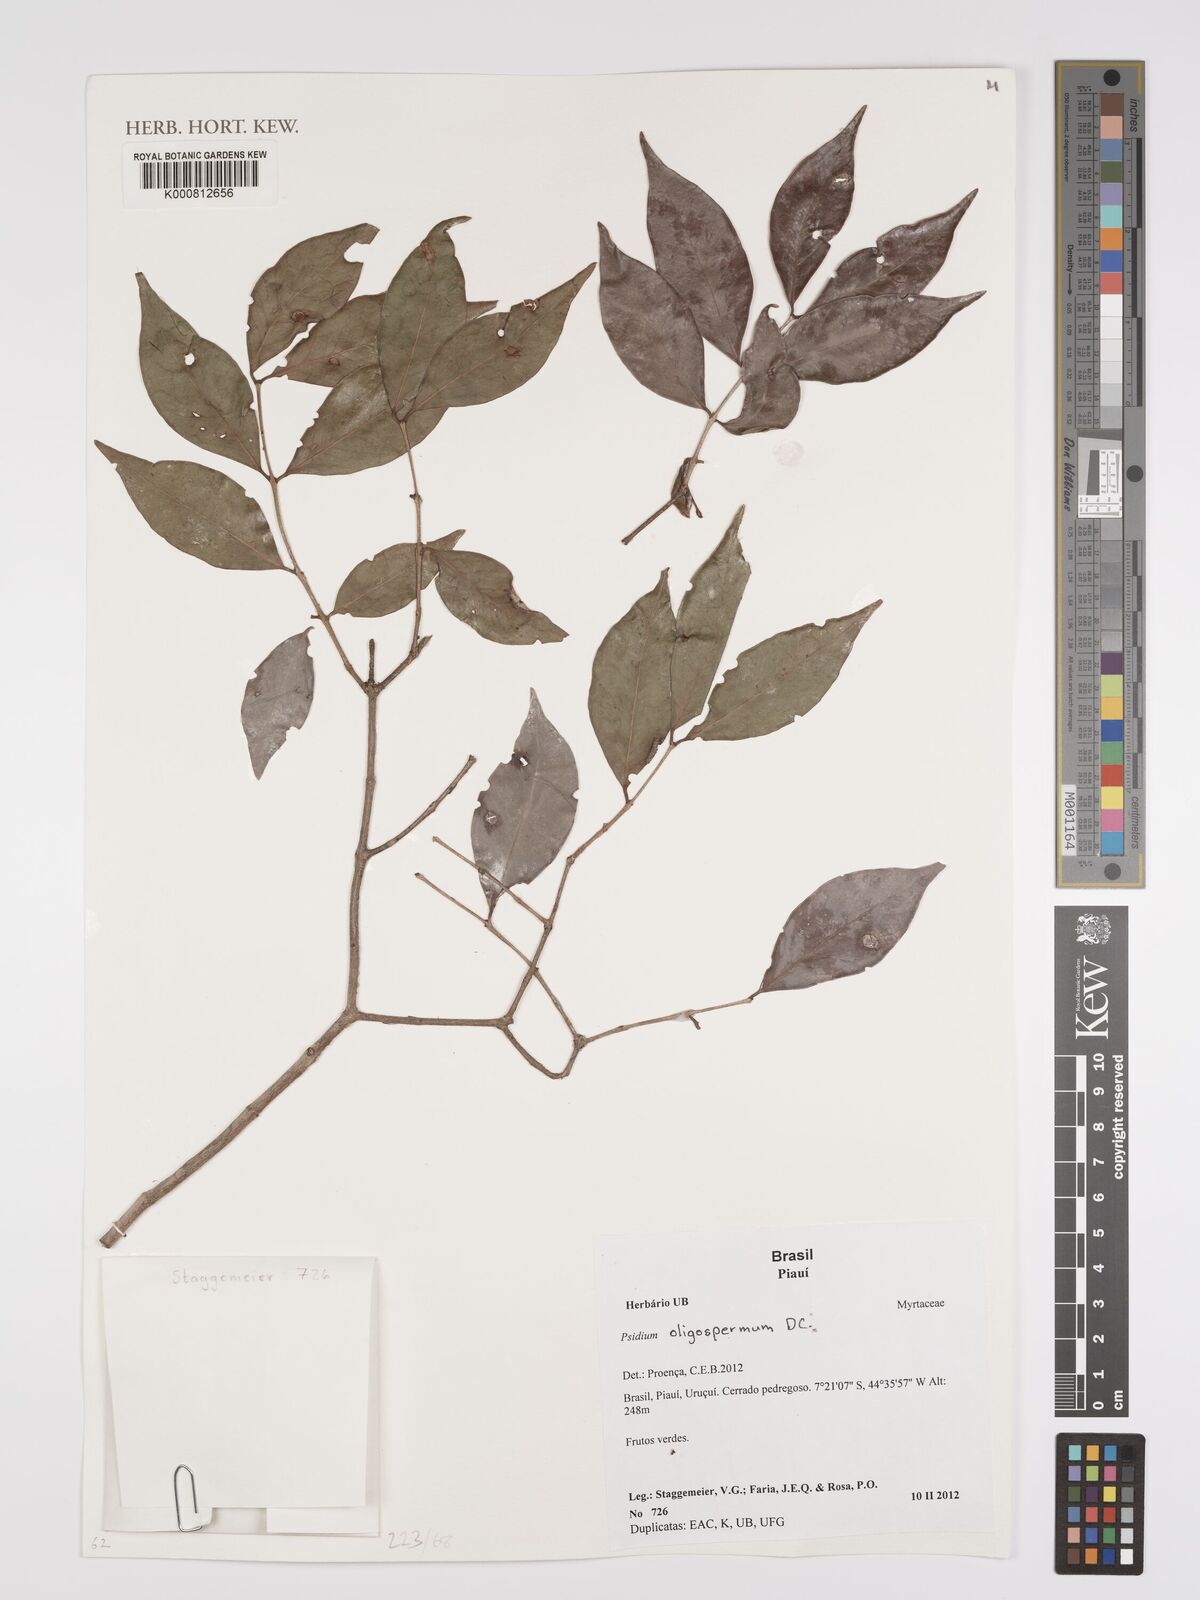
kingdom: Plantae
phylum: Tracheophyta
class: Magnoliopsida
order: Myrtales
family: Myrtaceae
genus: Psidium
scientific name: Psidium oligospermum
